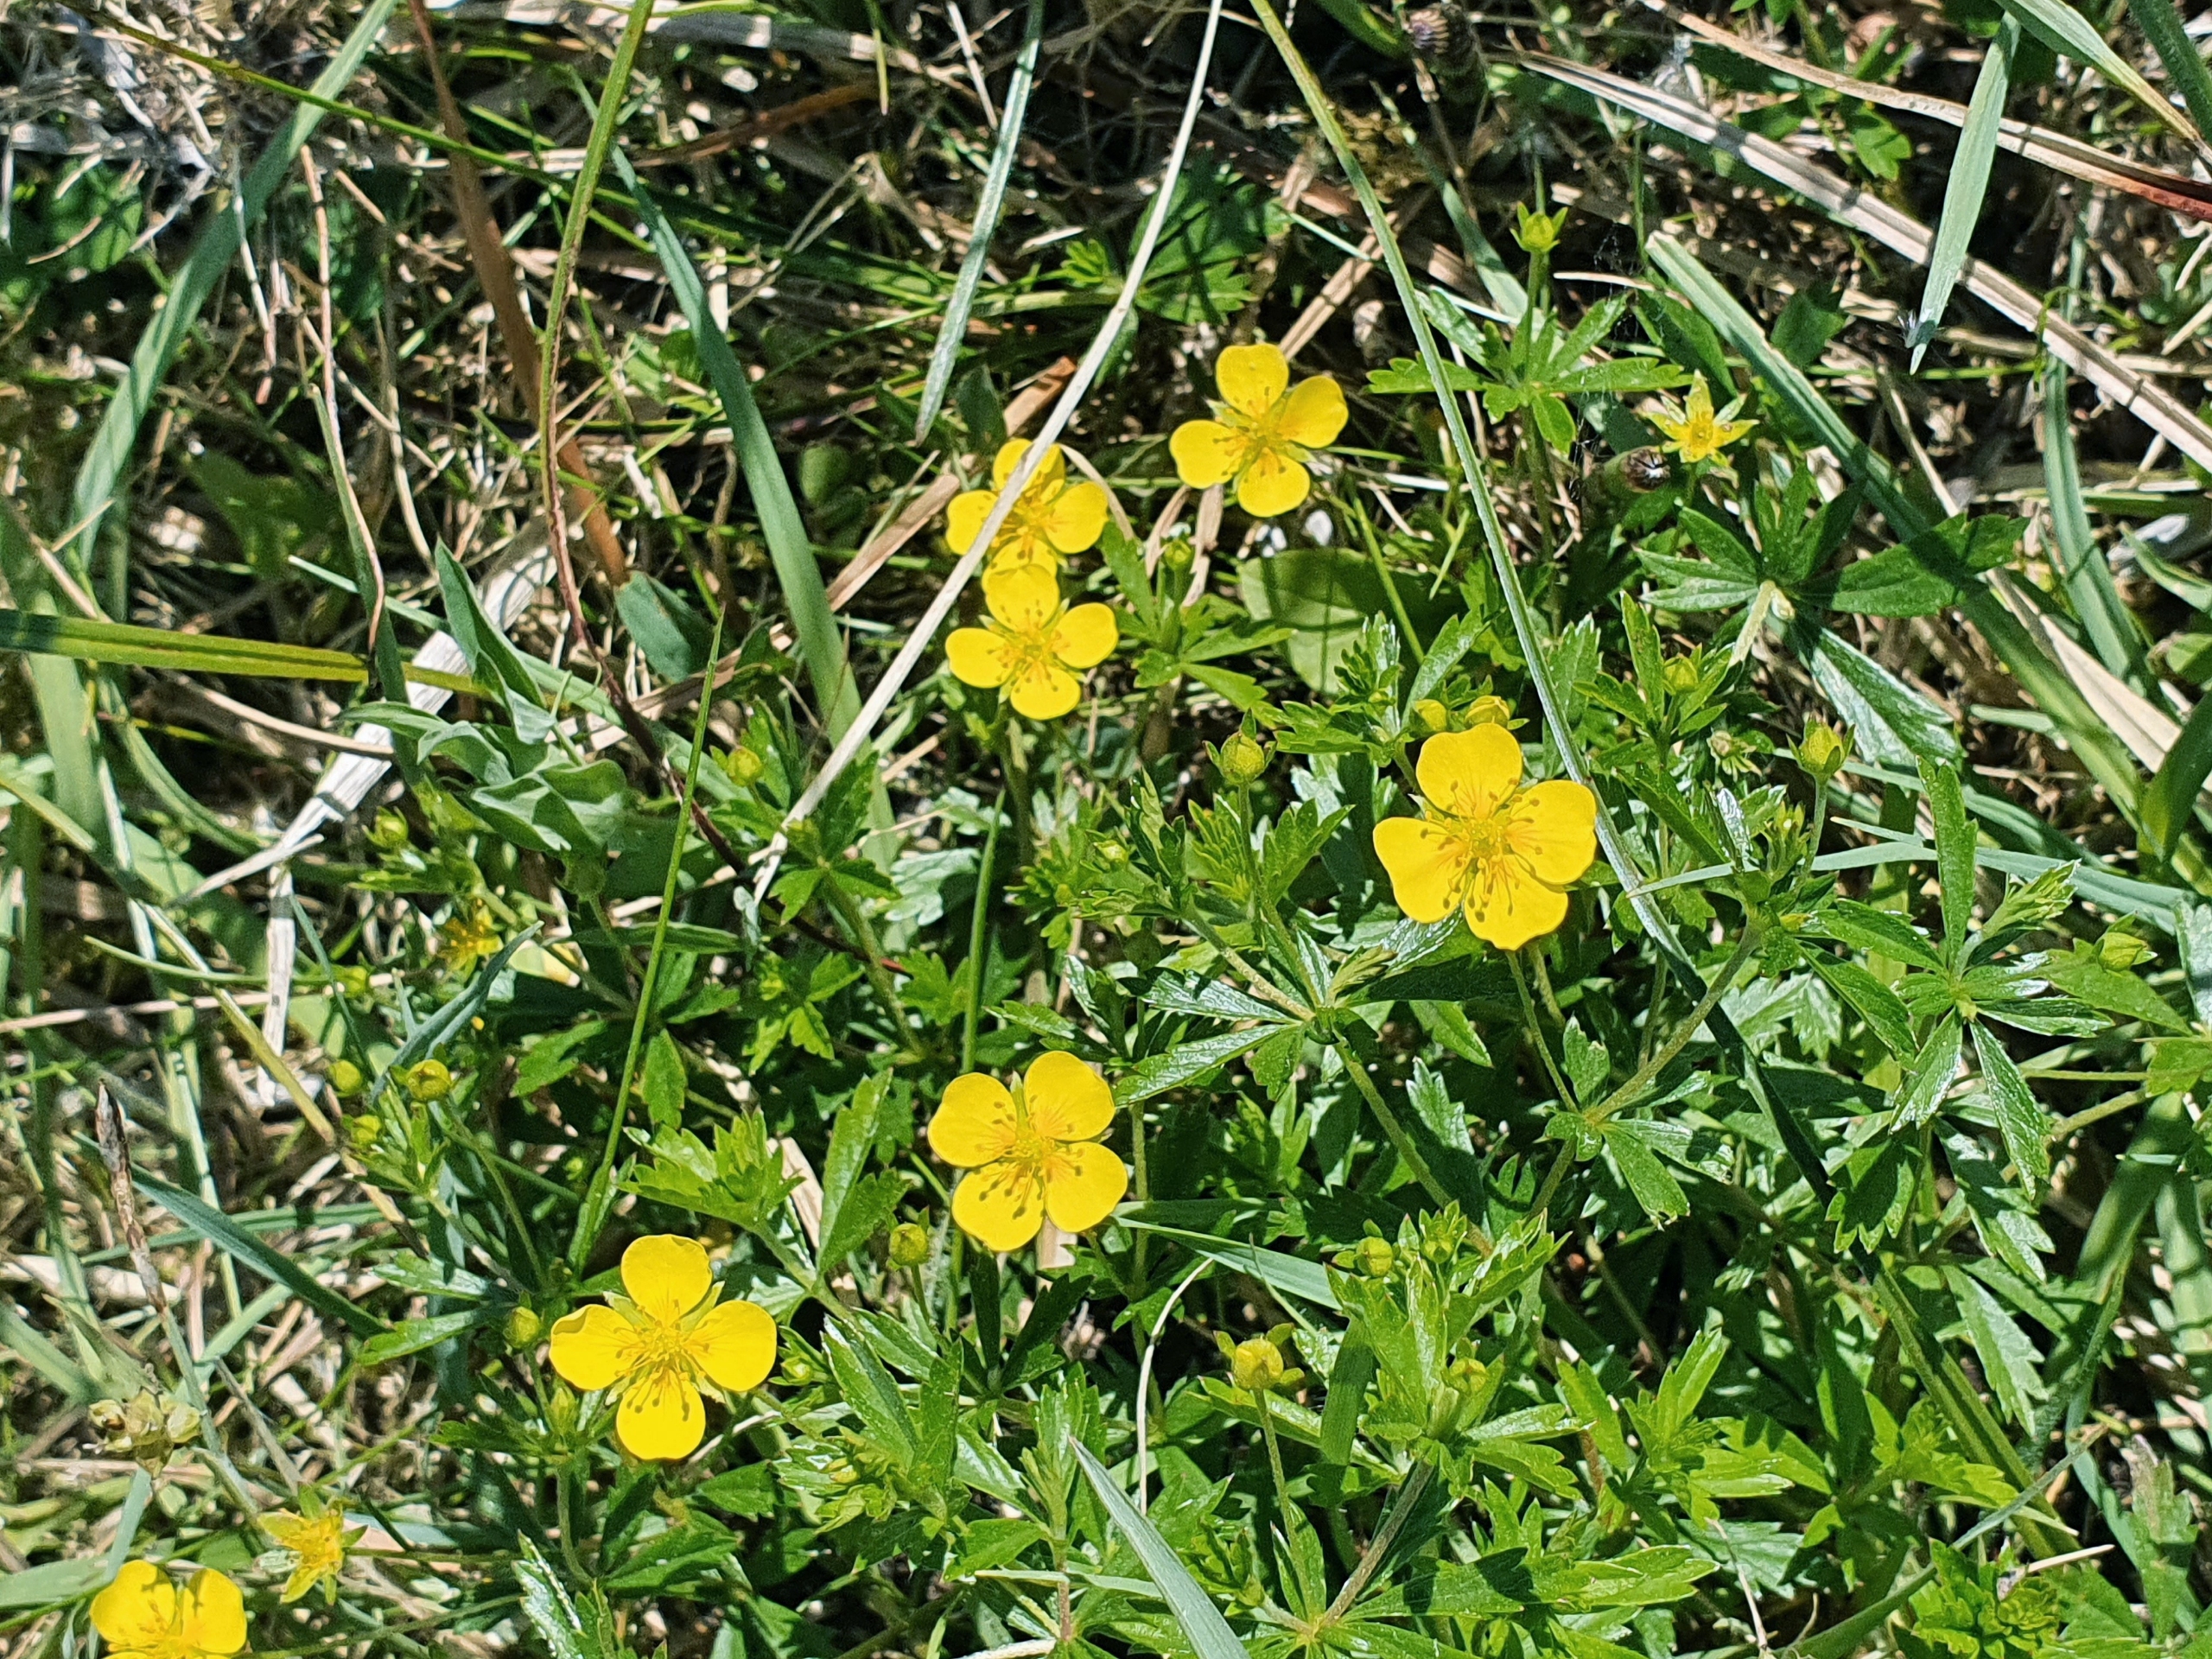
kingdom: Plantae
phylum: Tracheophyta
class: Magnoliopsida
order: Rosales
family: Rosaceae
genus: Potentilla
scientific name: Potentilla erecta
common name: Tormentil
